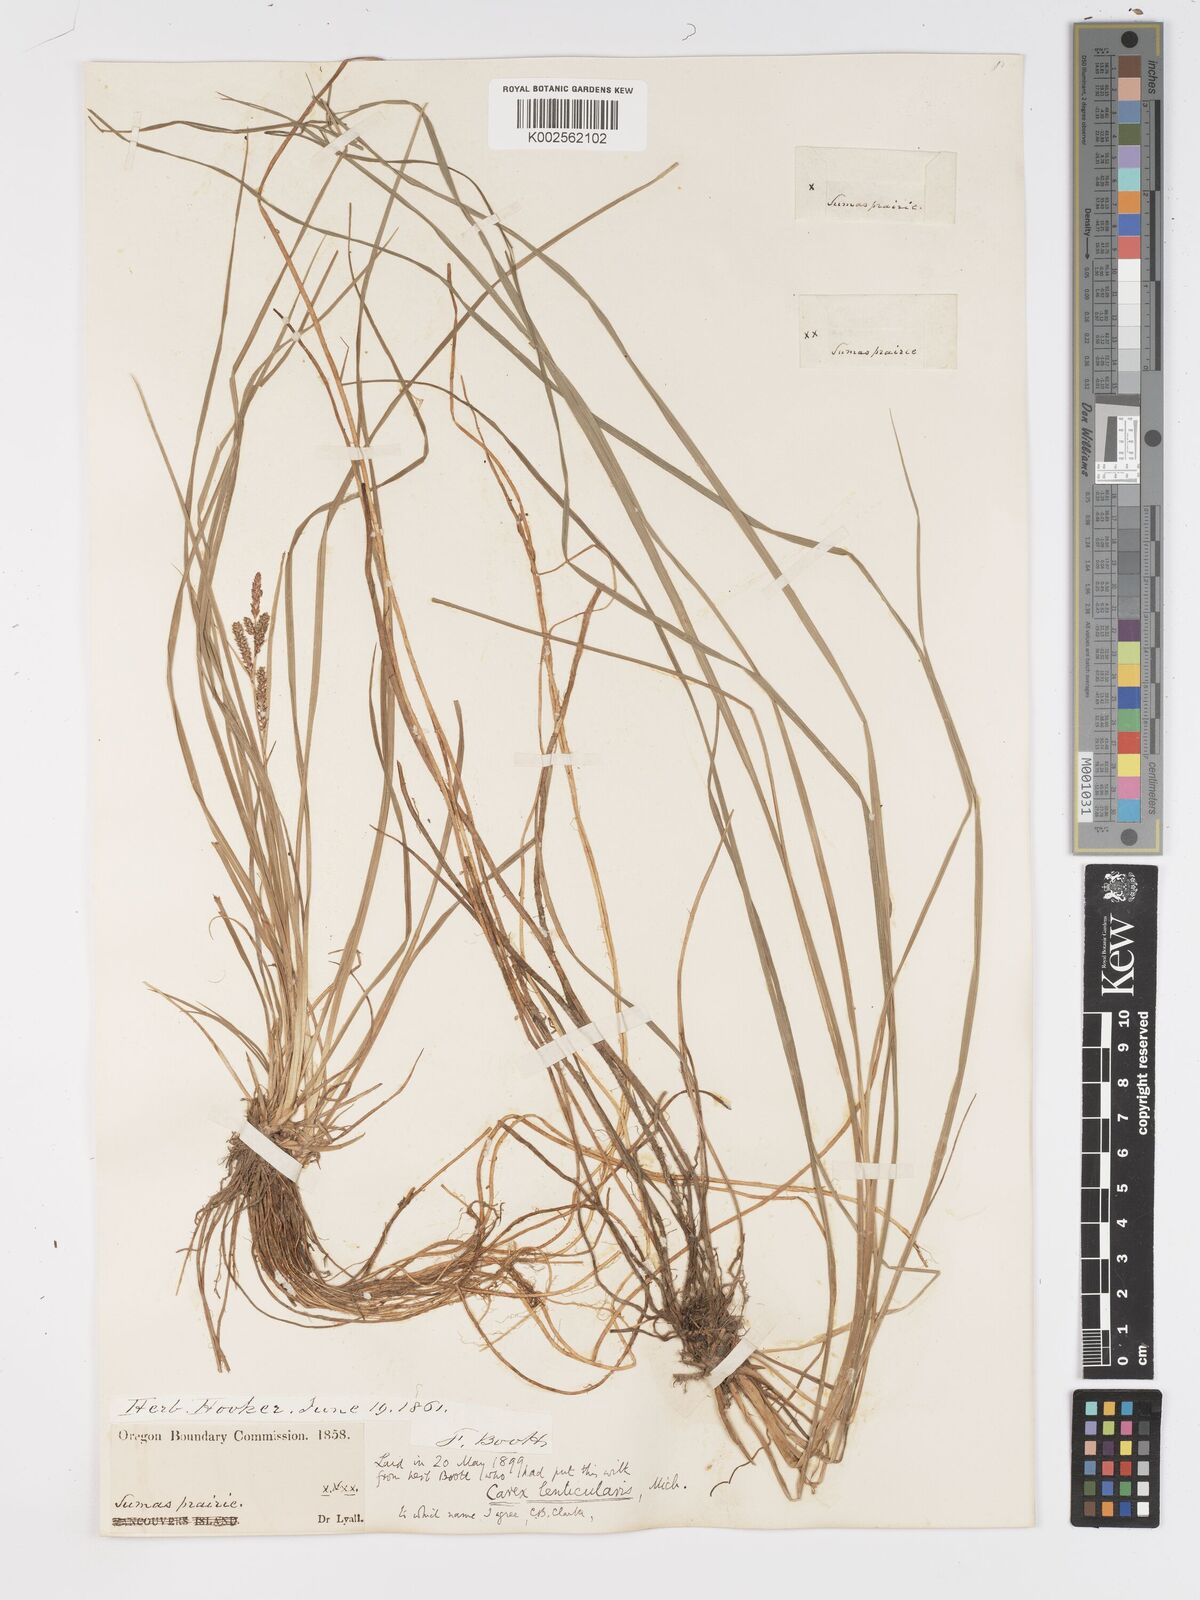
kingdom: Plantae
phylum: Tracheophyta
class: Liliopsida
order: Poales
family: Cyperaceae
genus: Carex
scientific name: Carex lenticularis
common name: Lakeshore sedge
